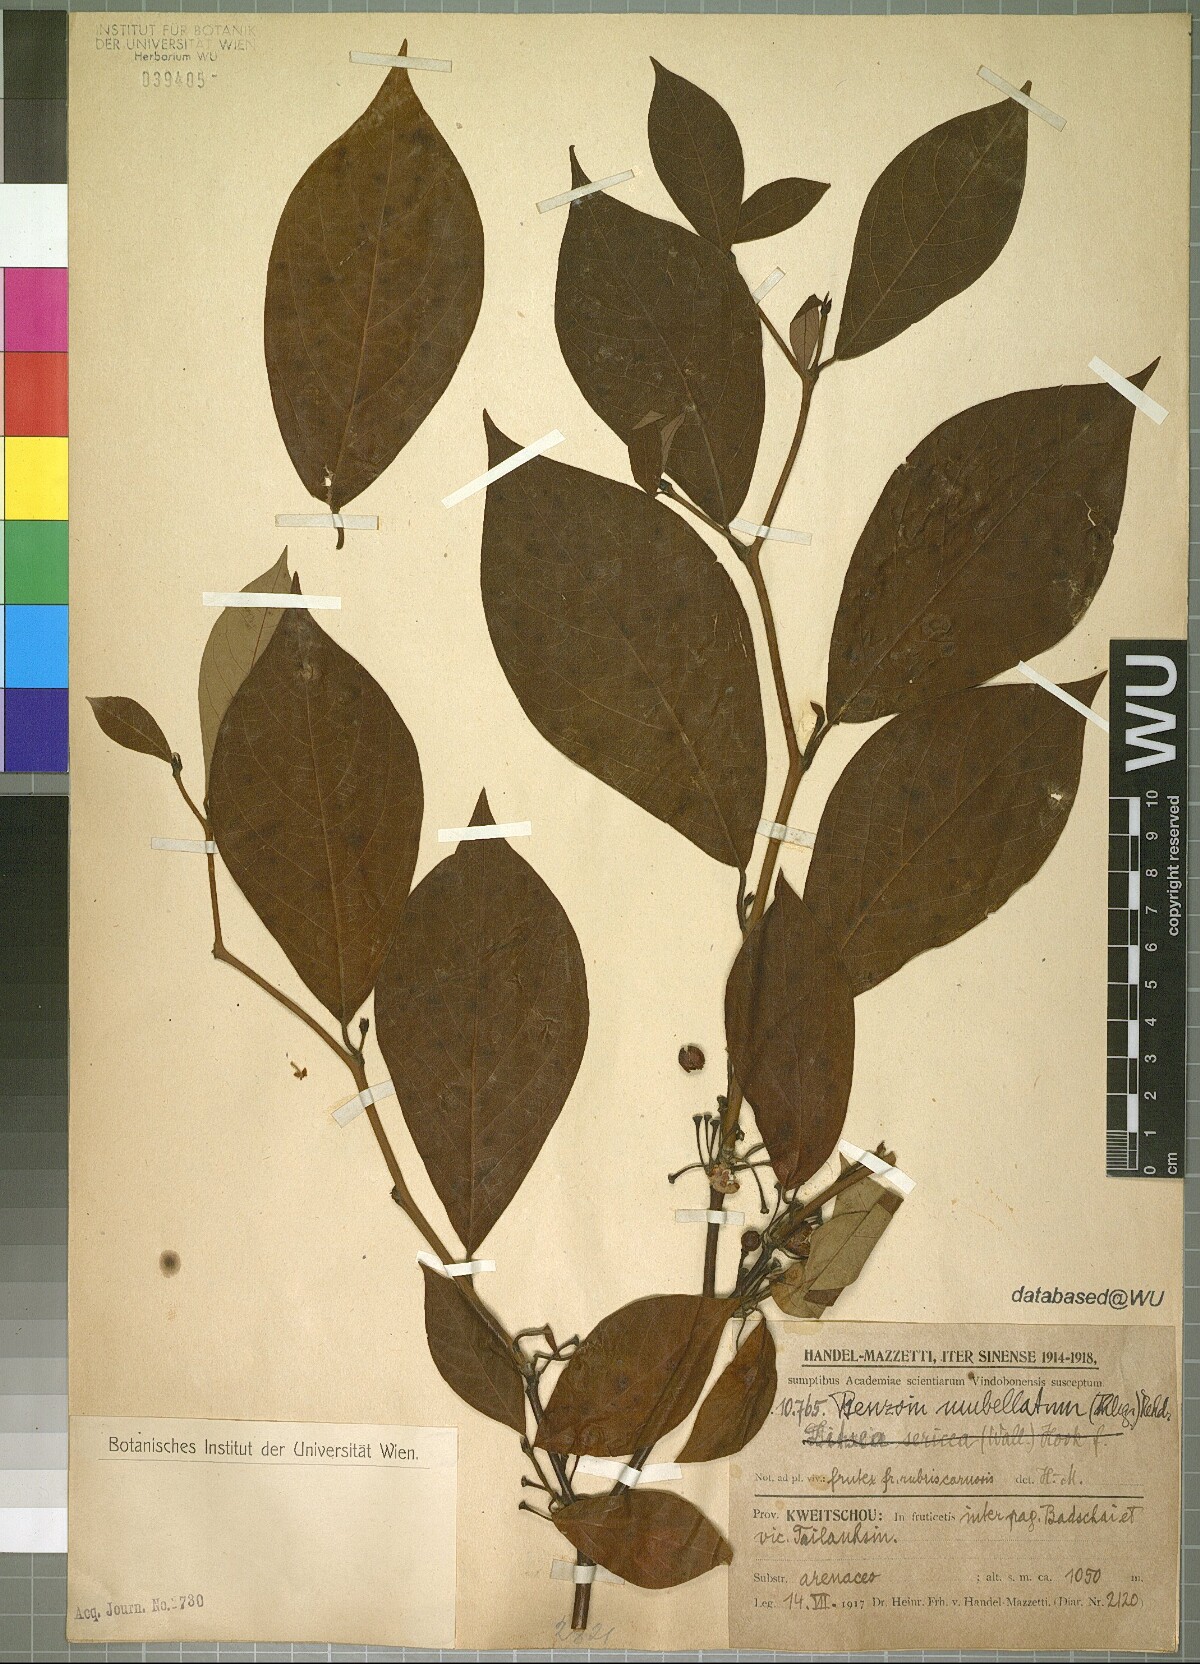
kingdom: Plantae
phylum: Tracheophyta
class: Magnoliopsida
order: Laurales
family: Lauraceae
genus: Litsea
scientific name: Litsea umbellata
